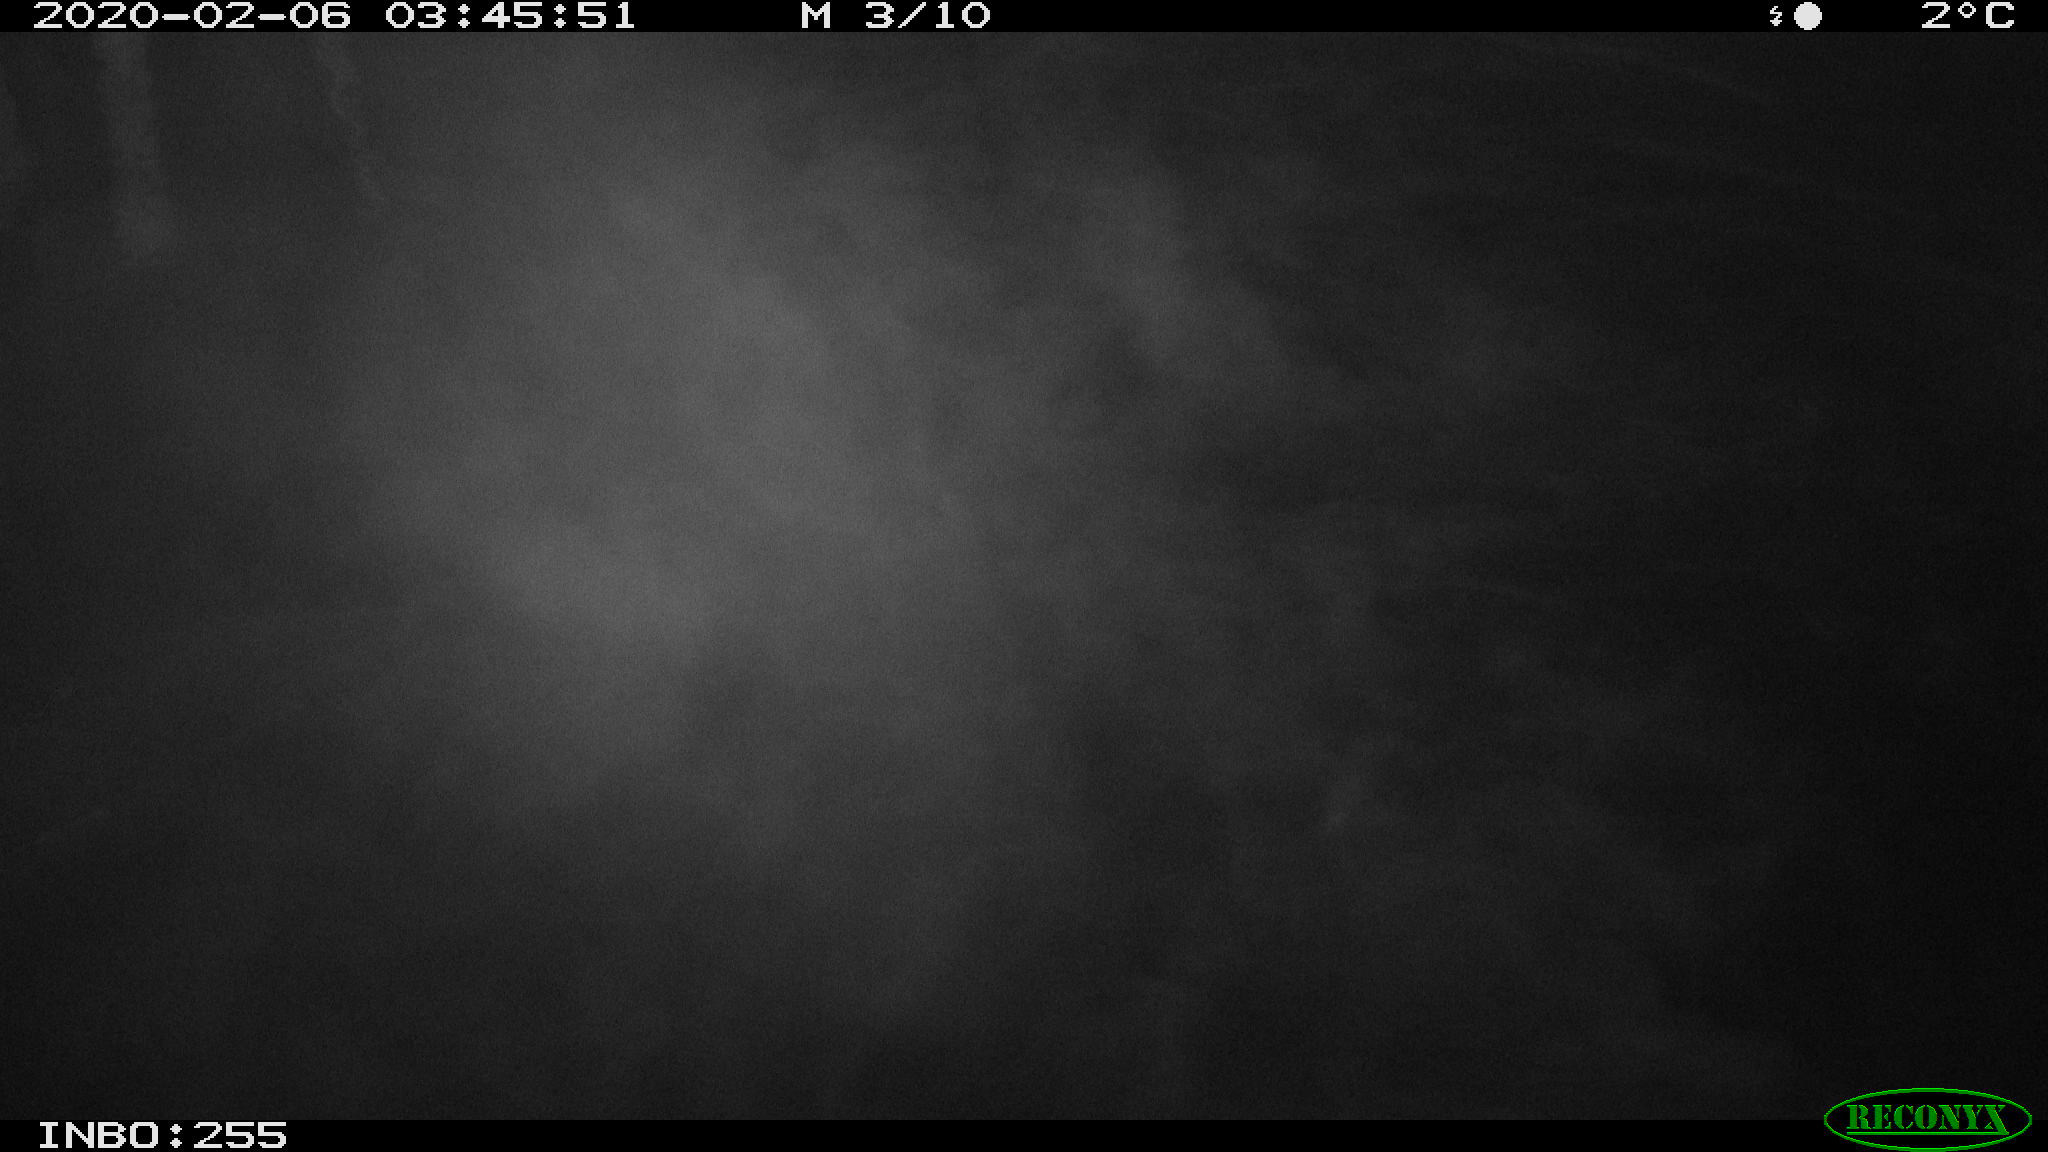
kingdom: Animalia
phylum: Chordata
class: Mammalia
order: Rodentia
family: Cricetidae
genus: Ondatra
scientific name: Ondatra zibethicus
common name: Muskrat
